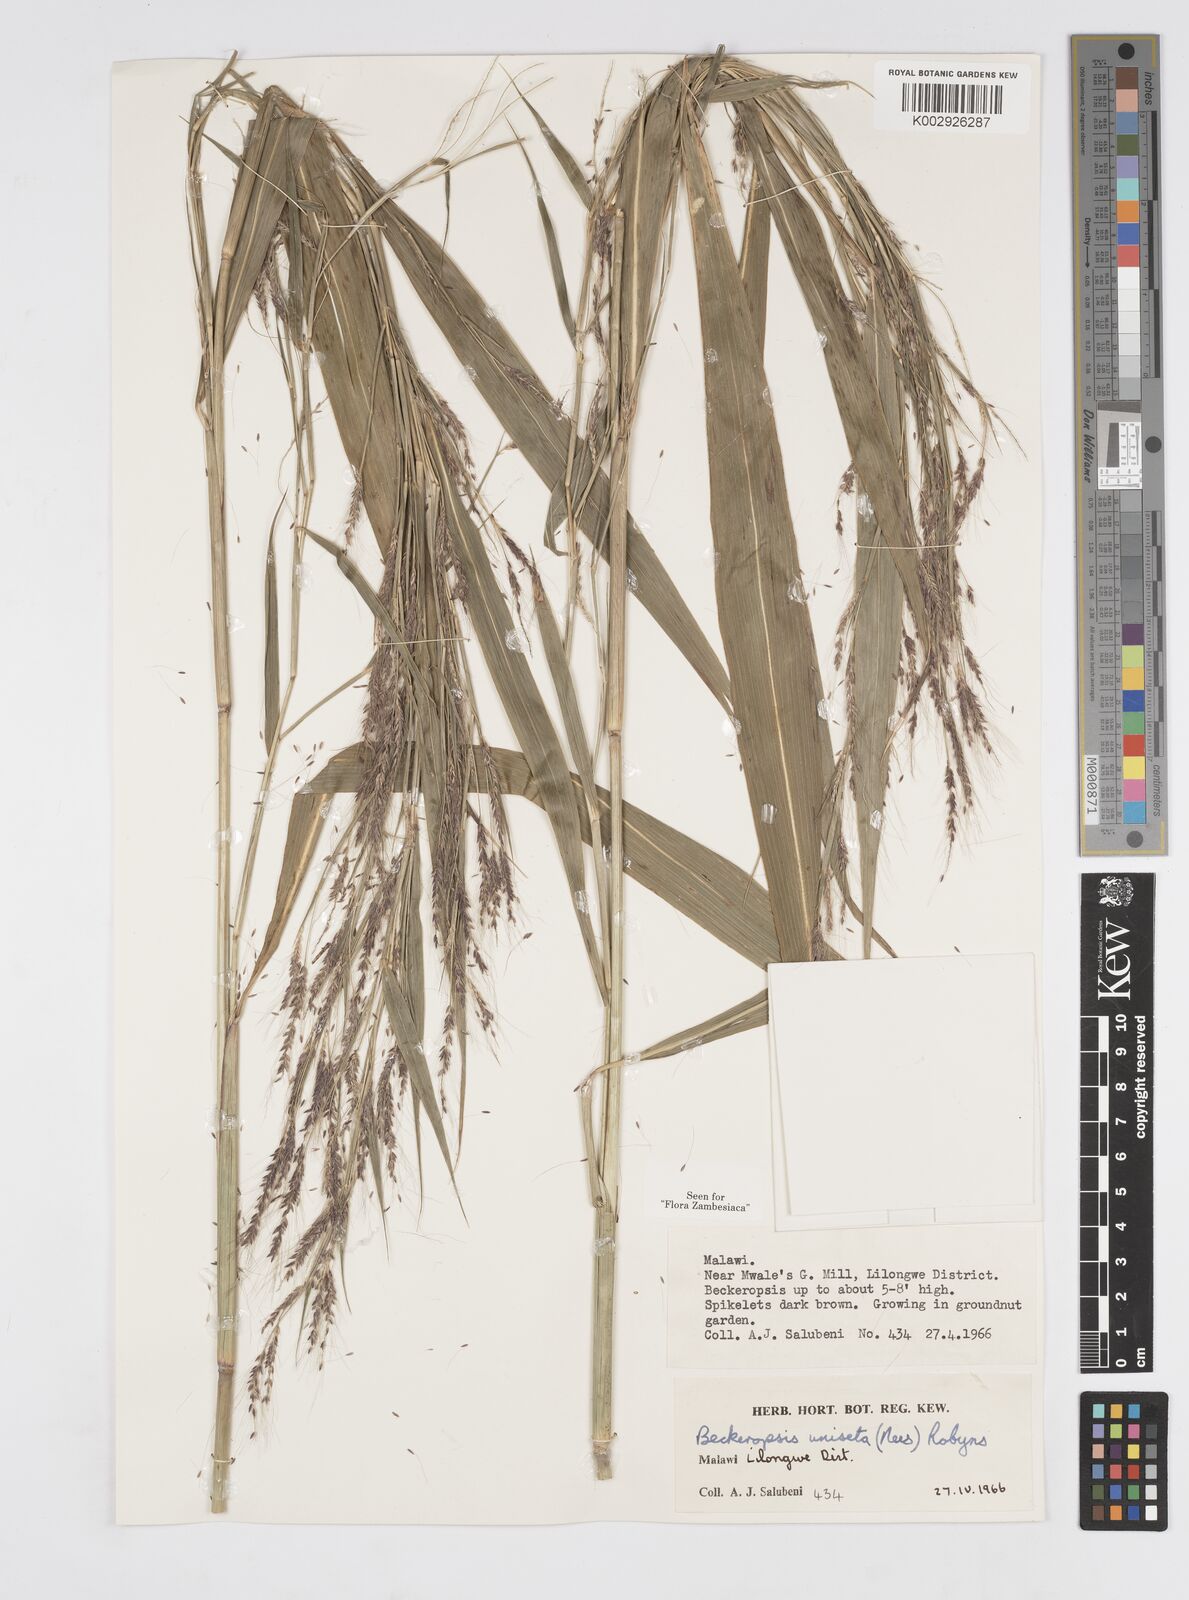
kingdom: Plantae
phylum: Tracheophyta
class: Liliopsida
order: Poales
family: Poaceae
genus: Cenchrus
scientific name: Cenchrus unisetus
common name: Natal grass
